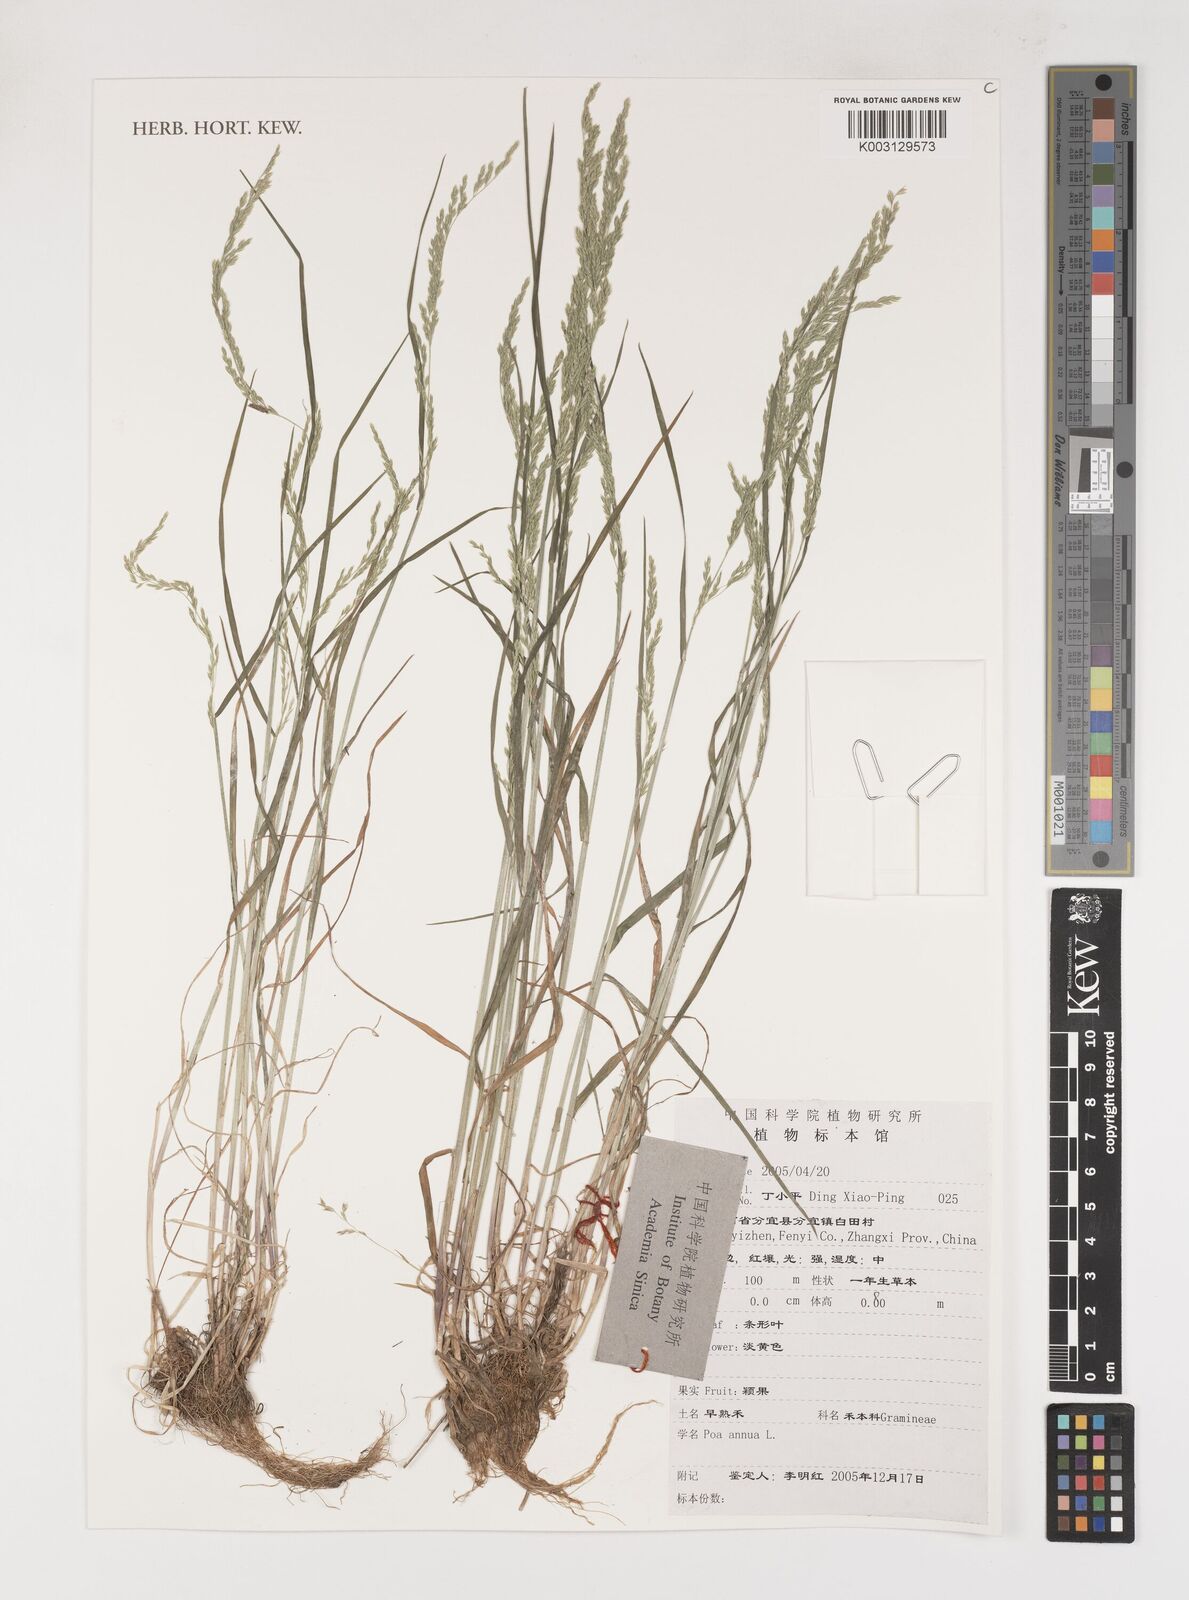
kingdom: Plantae
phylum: Tracheophyta
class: Liliopsida
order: Poales
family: Poaceae
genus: Poa
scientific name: Poa annua
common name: Annual bluegrass
